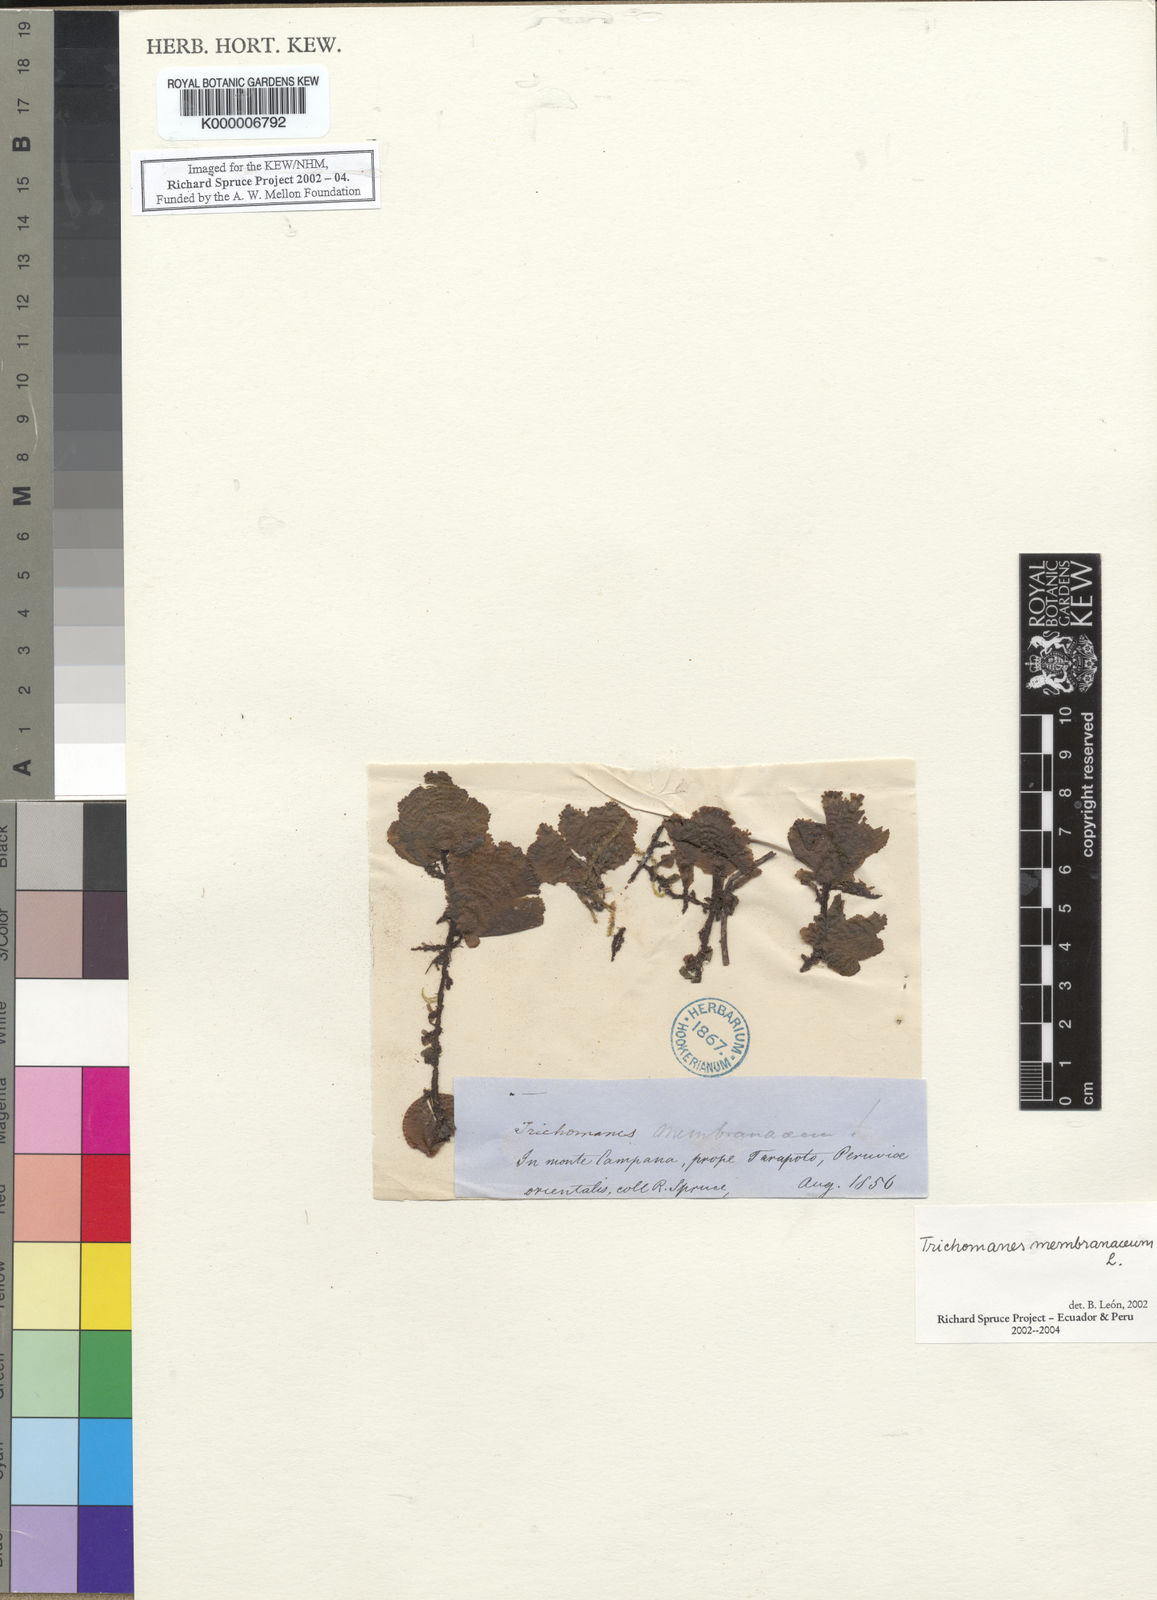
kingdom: Plantae
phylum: Tracheophyta
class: Polypodiopsida
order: Hymenophyllales
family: Hymenophyllaceae
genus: Didymoglossum
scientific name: Didymoglossum membranaceum
